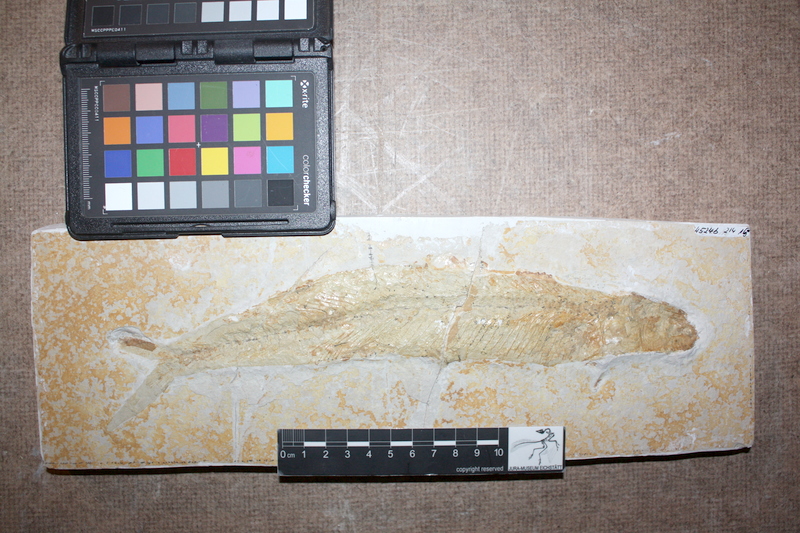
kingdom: Animalia
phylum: Chordata
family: Allothrissopidae
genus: Allothrissops
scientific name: Allothrissops
